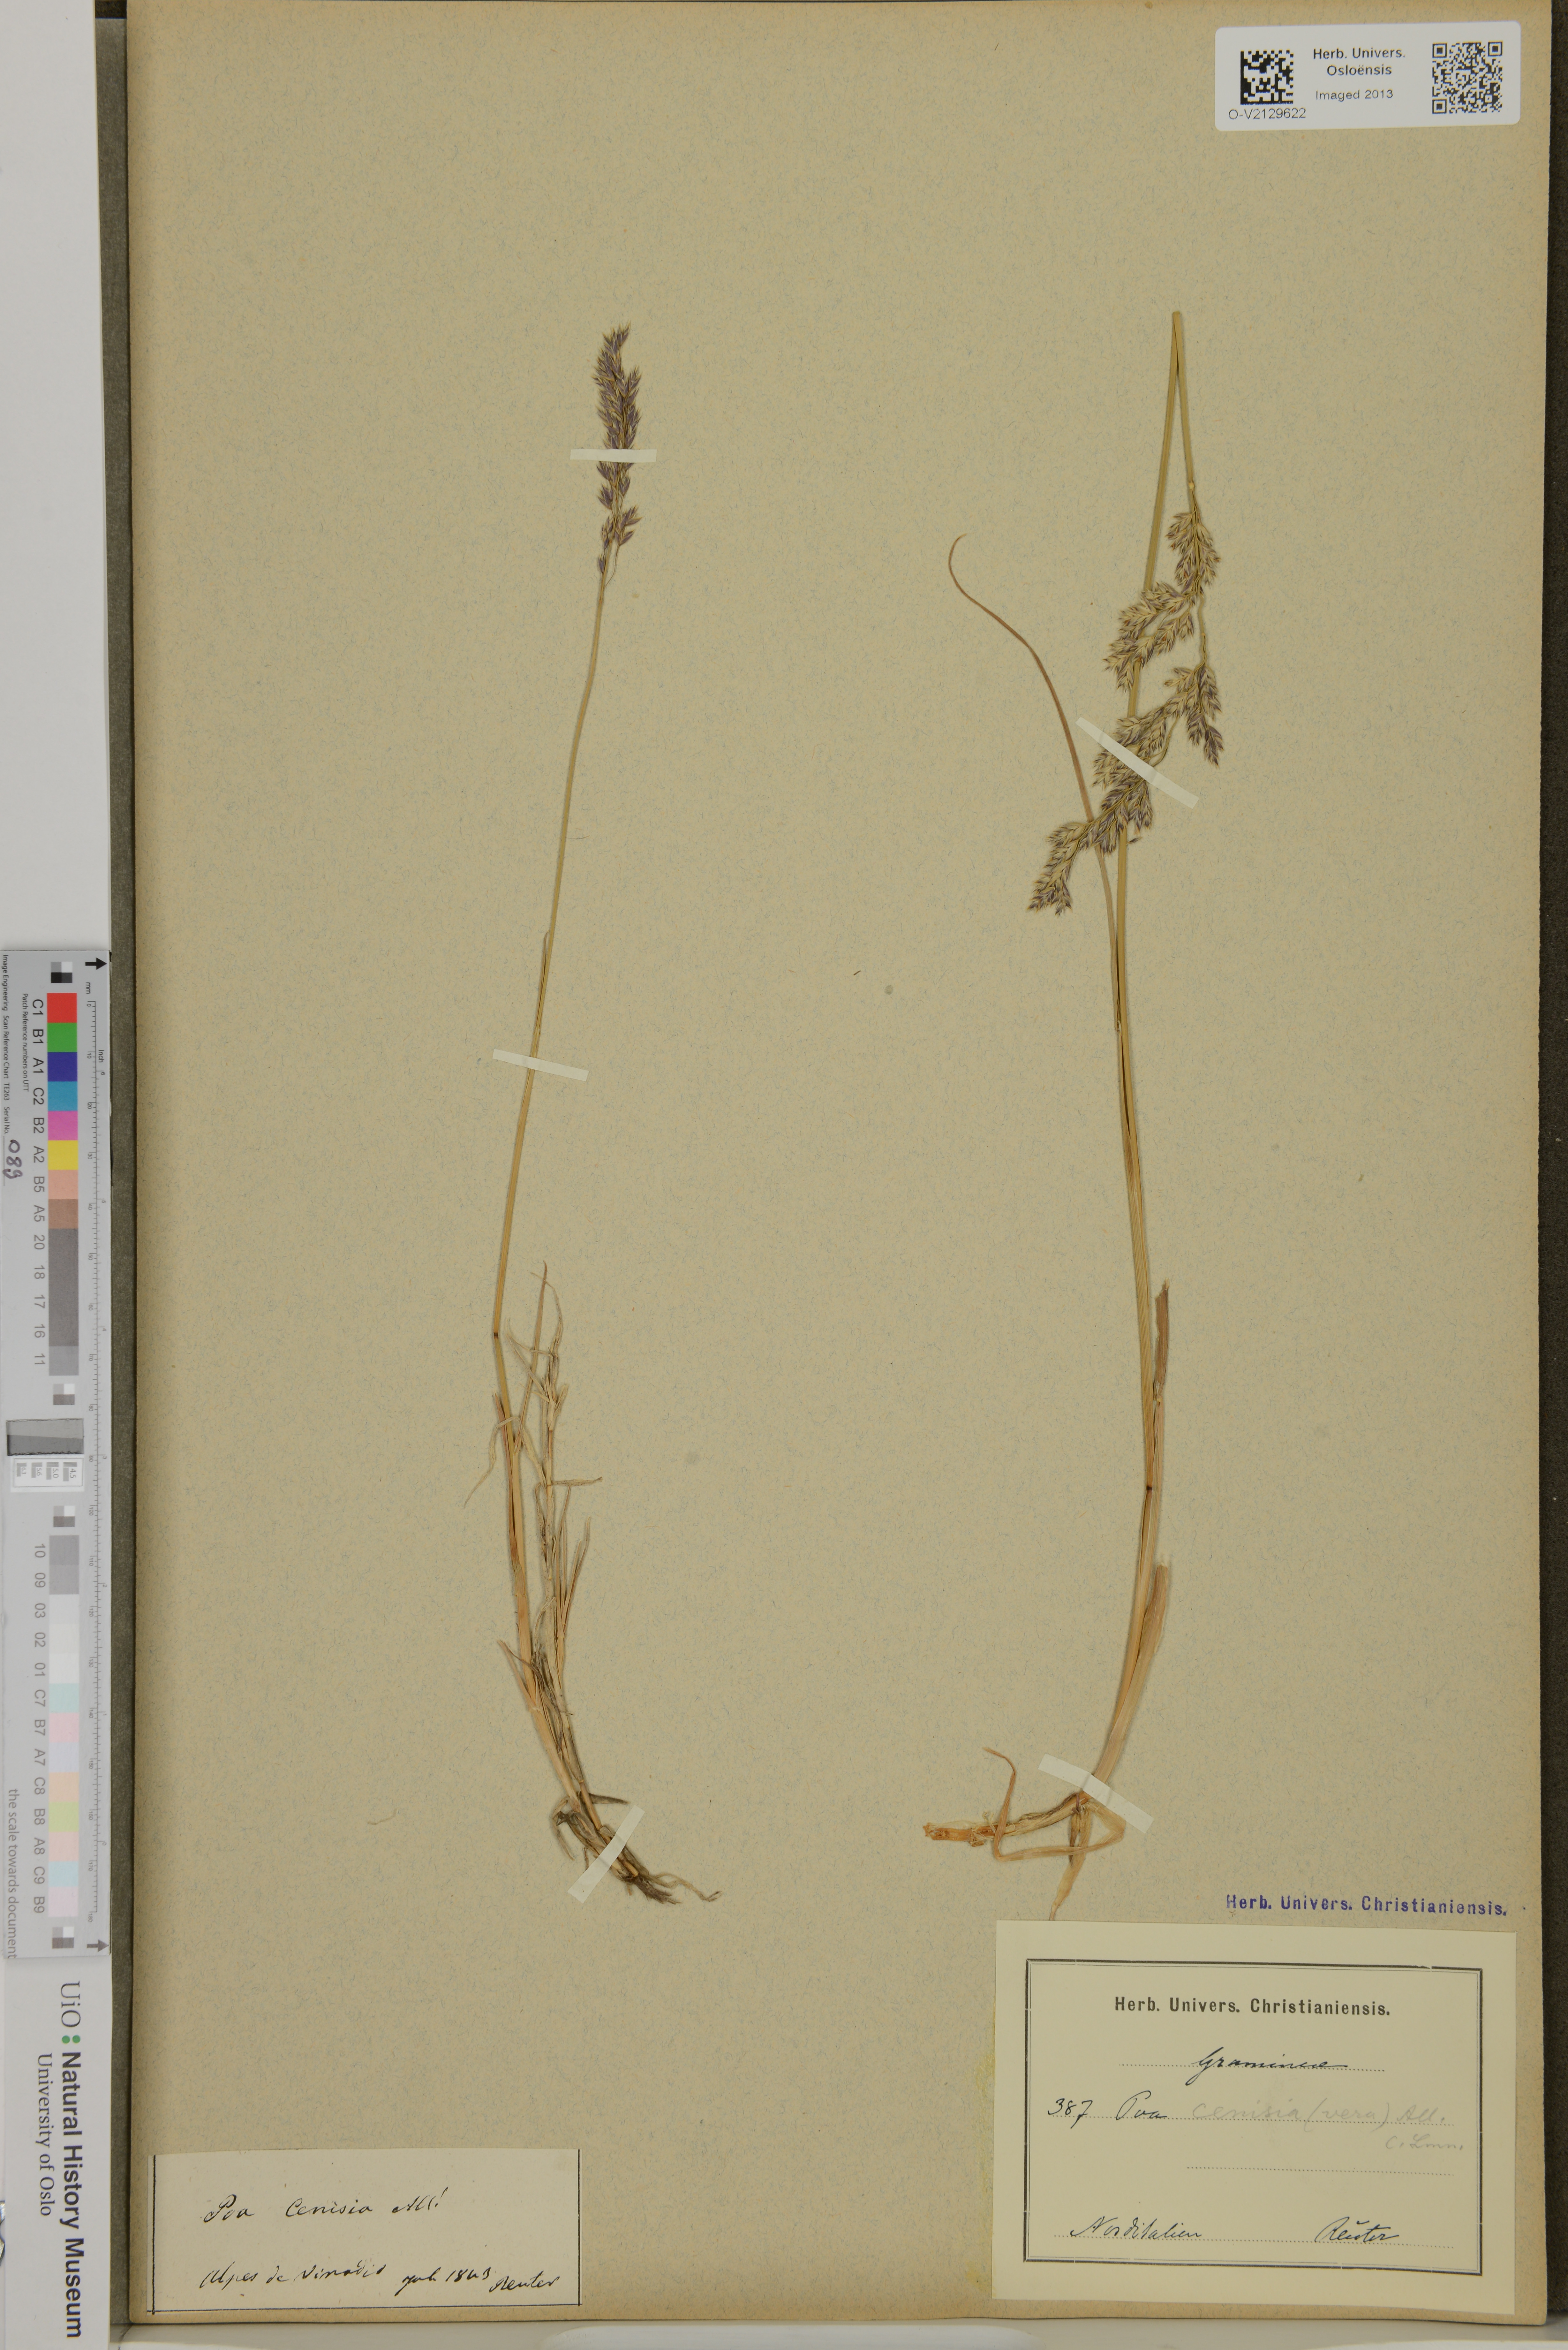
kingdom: Plantae
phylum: Tracheophyta
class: Liliopsida
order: Poales
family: Poaceae
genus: Poa
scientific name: Poa arctica
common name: Arctic bluegrass
